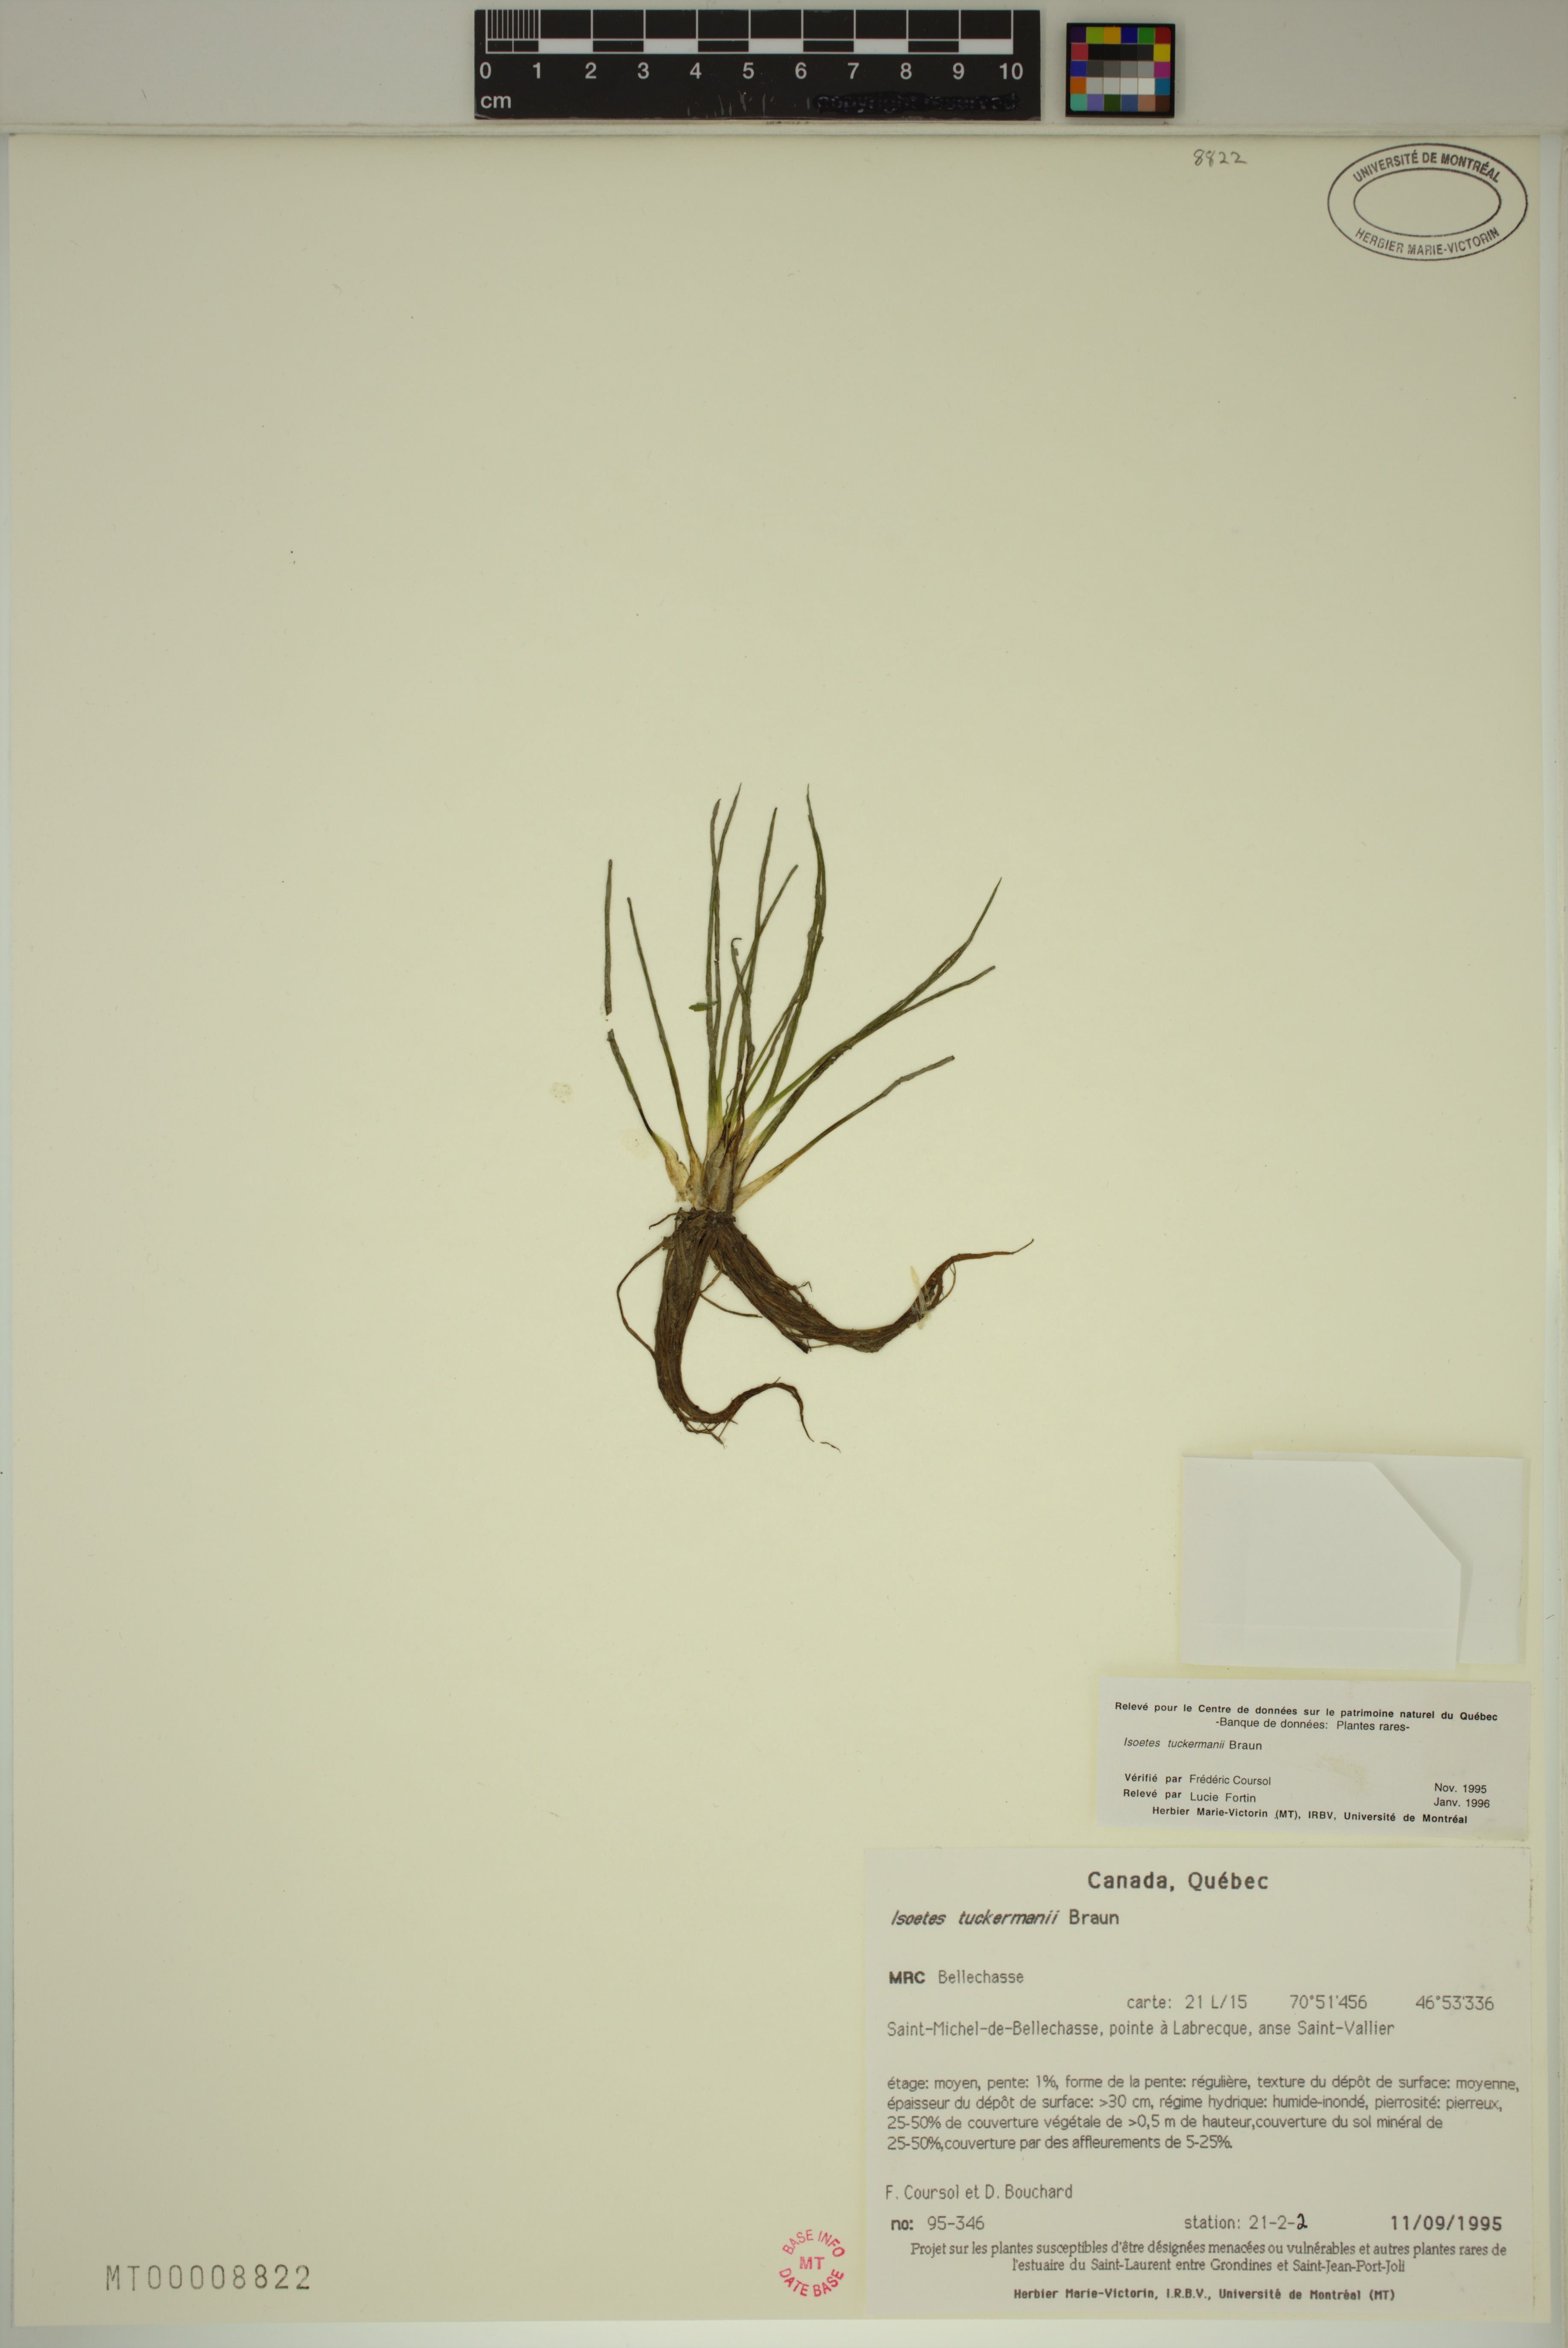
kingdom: Plantae
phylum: Tracheophyta
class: Lycopodiopsida
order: Isoetales
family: Isoetaceae
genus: Isoetes
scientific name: Isoetes tuckermanii
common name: Tuckerman's quillwort
